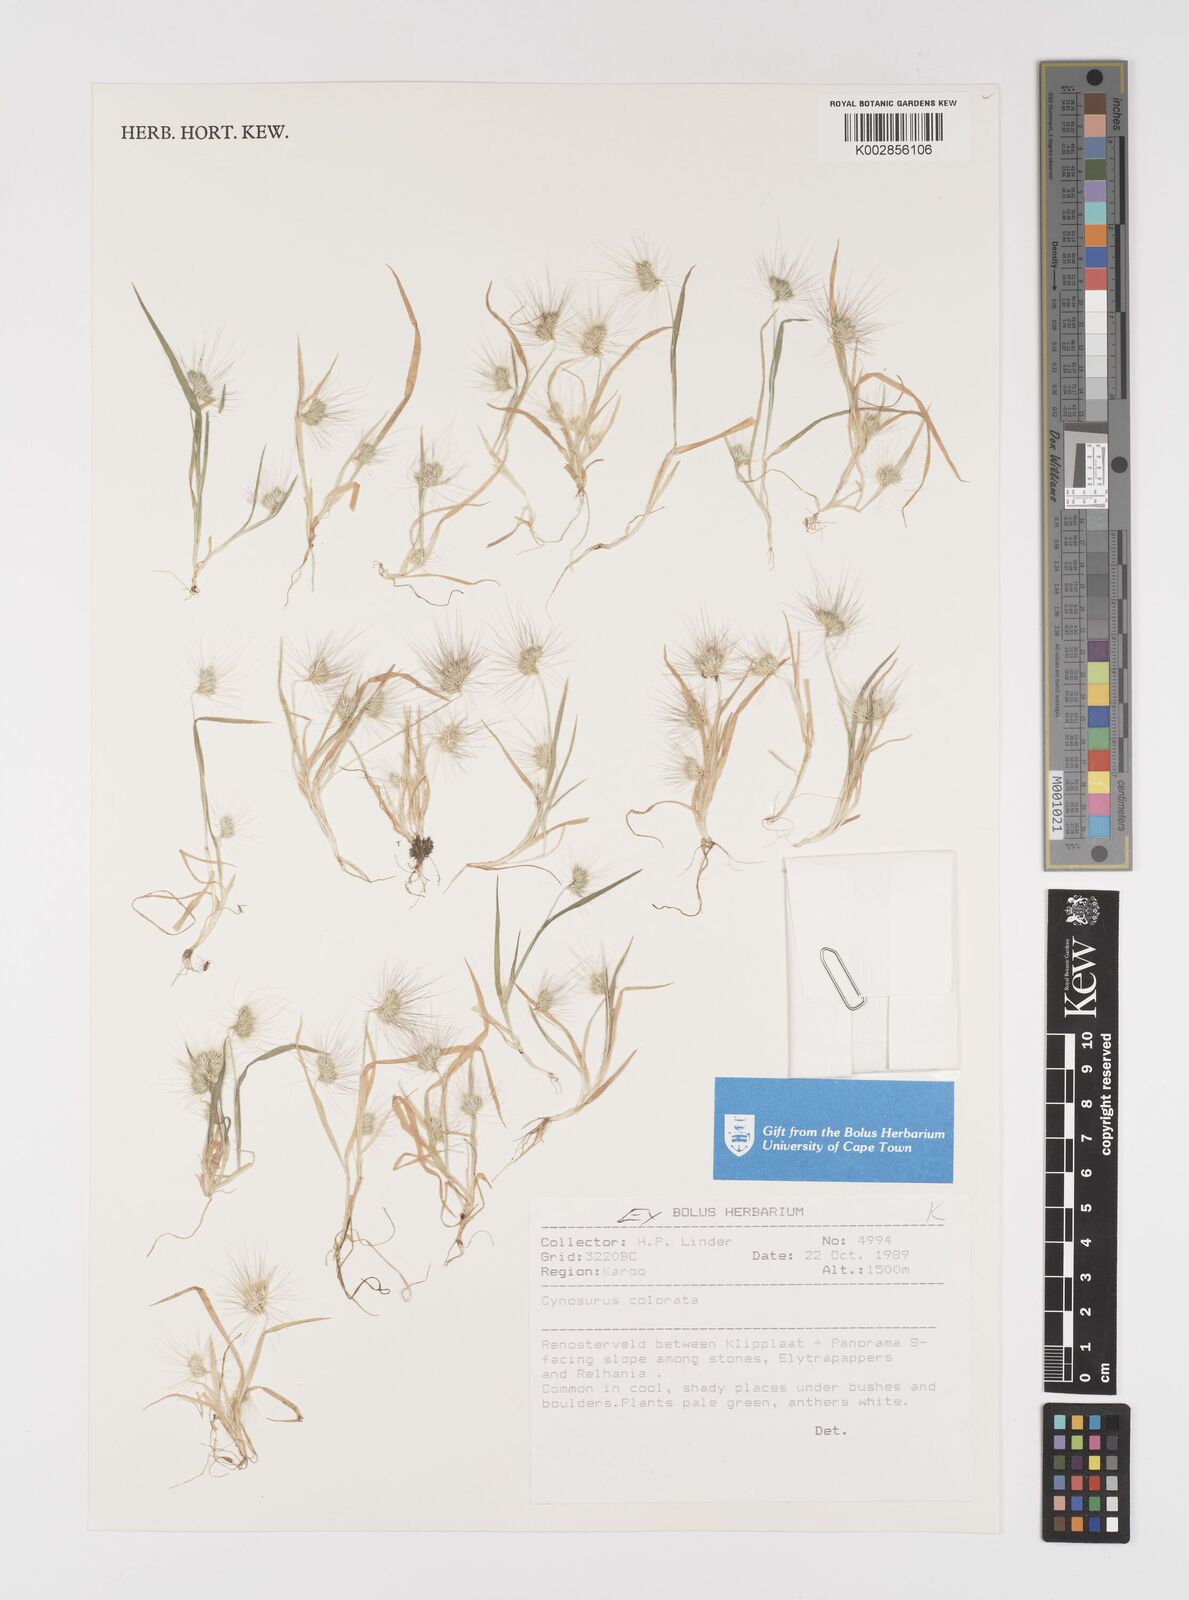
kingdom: Plantae
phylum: Tracheophyta
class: Liliopsida
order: Poales
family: Poaceae
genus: Cynosurus
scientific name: Cynosurus coloratus
